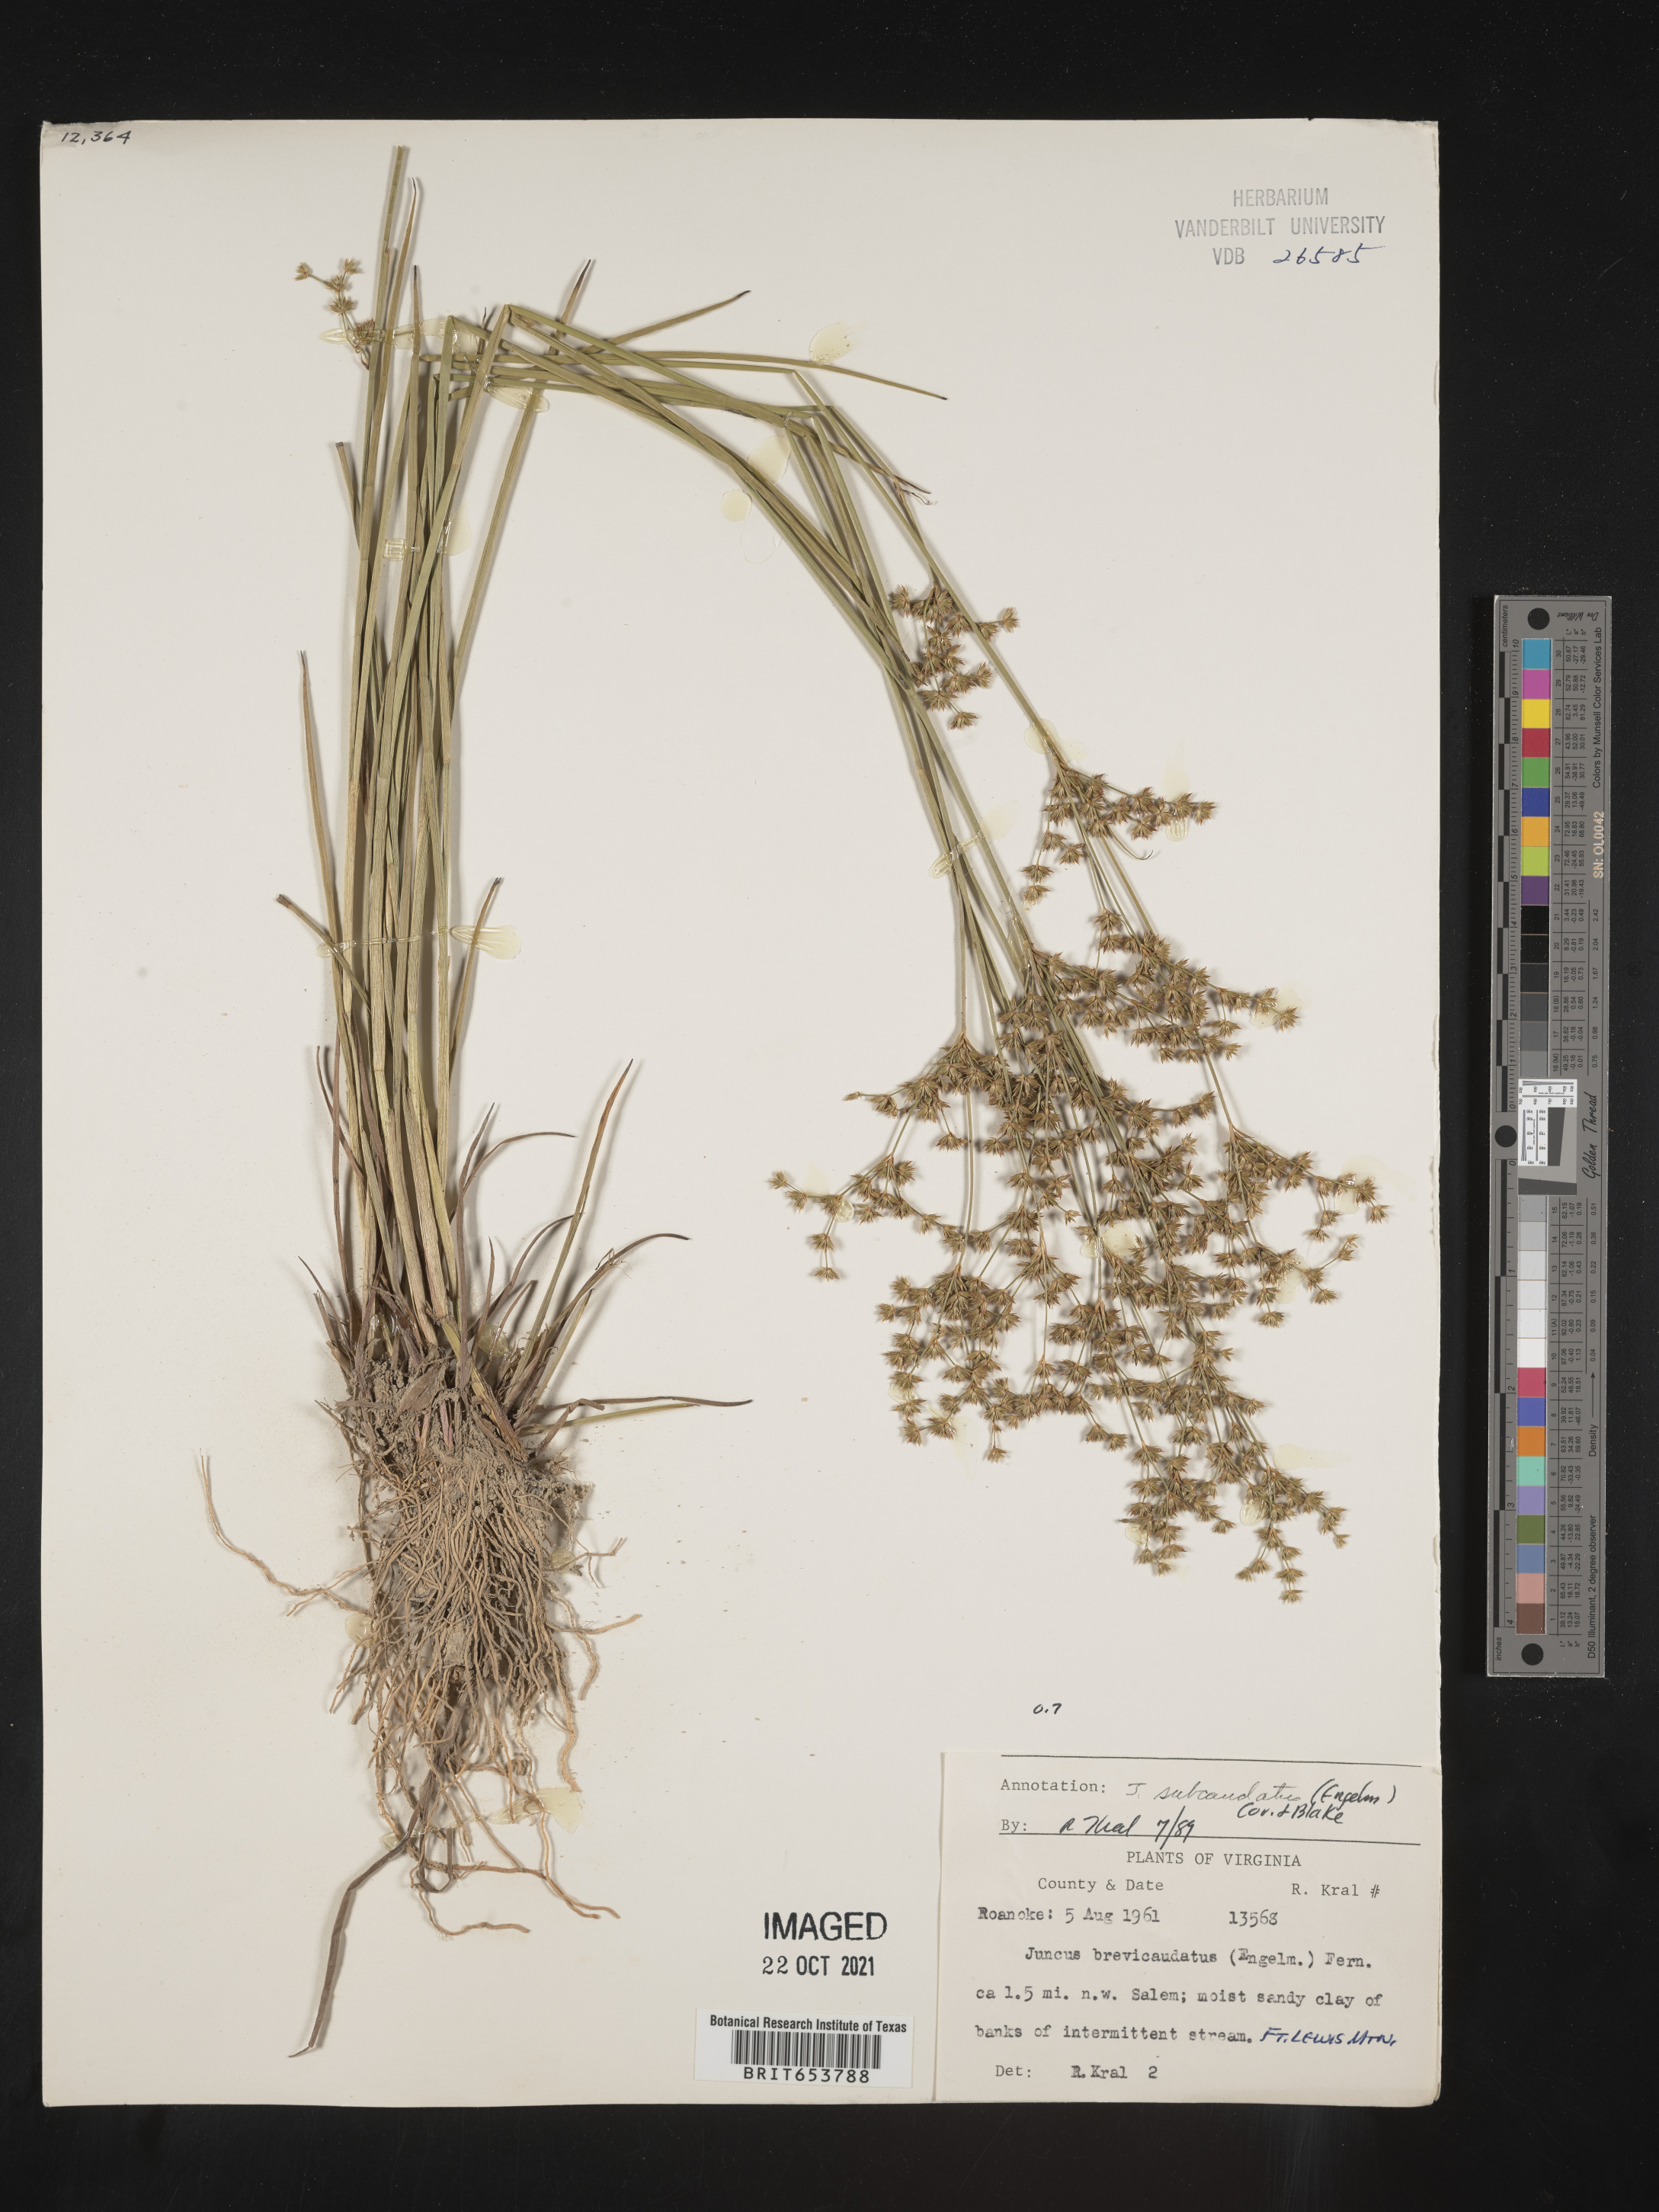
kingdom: Plantae
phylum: Tracheophyta
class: Liliopsida
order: Poales
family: Juncaceae
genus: Juncus
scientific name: Juncus subcaudatus
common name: Engelmann's rush
